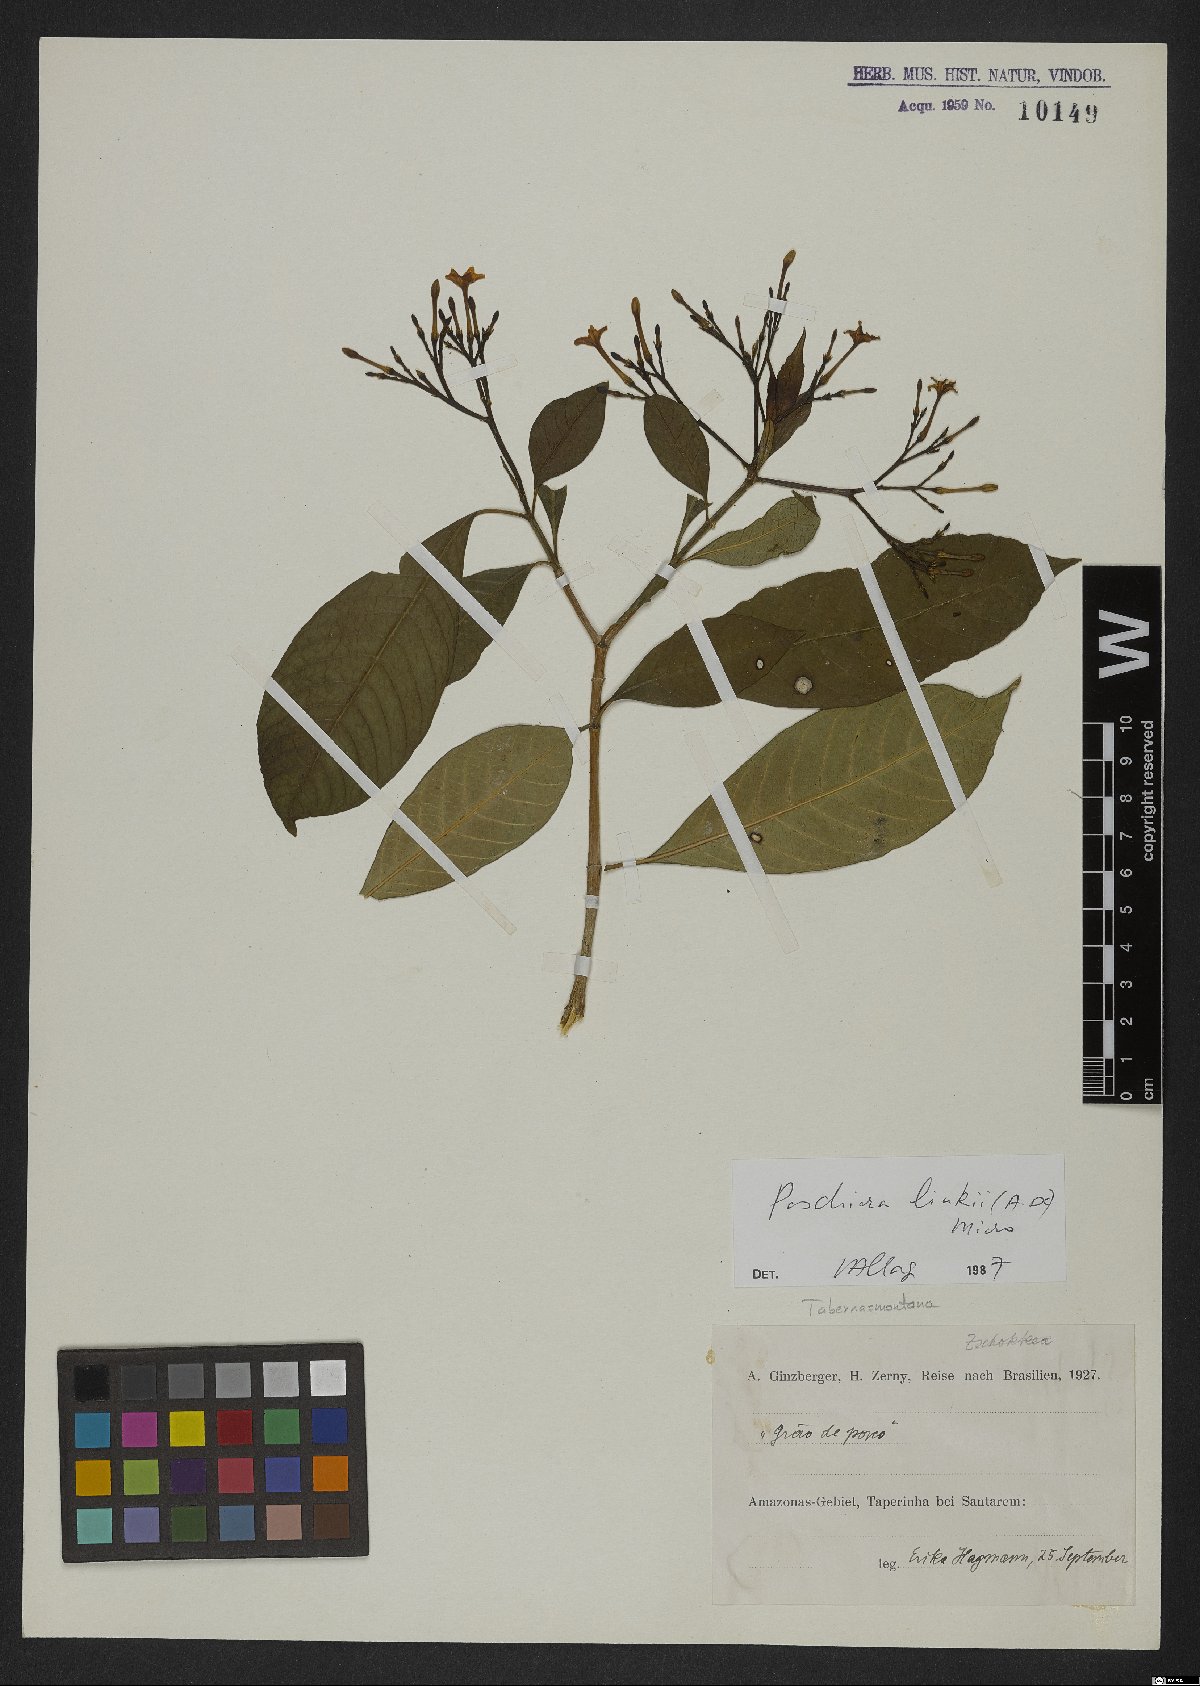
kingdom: Plantae
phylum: Tracheophyta
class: Magnoliopsida
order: Gentianales
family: Apocynaceae
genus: Tabernaemontana
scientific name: Tabernaemontana linkii
